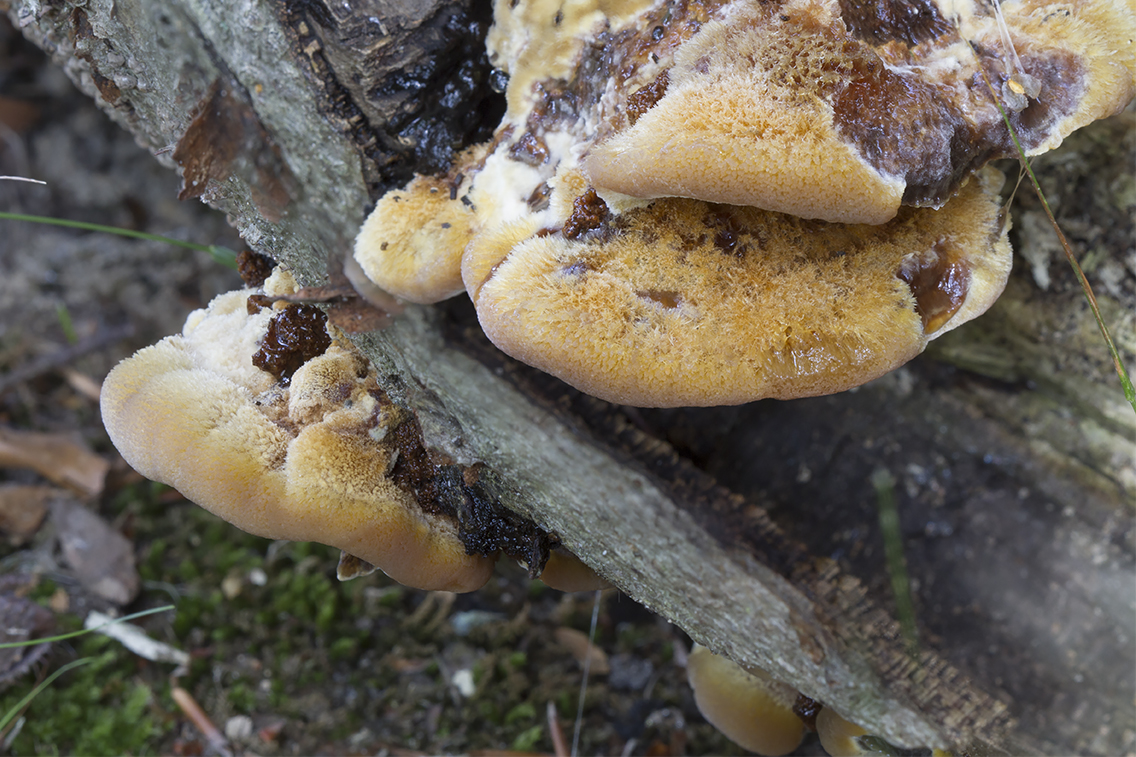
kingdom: Fungi
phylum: Basidiomycota
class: Agaricomycetes
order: Hymenochaetales
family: Hymenochaetaceae
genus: Inonotus
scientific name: Inonotus cuticularis
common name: kroghåret spejlporesvamp
